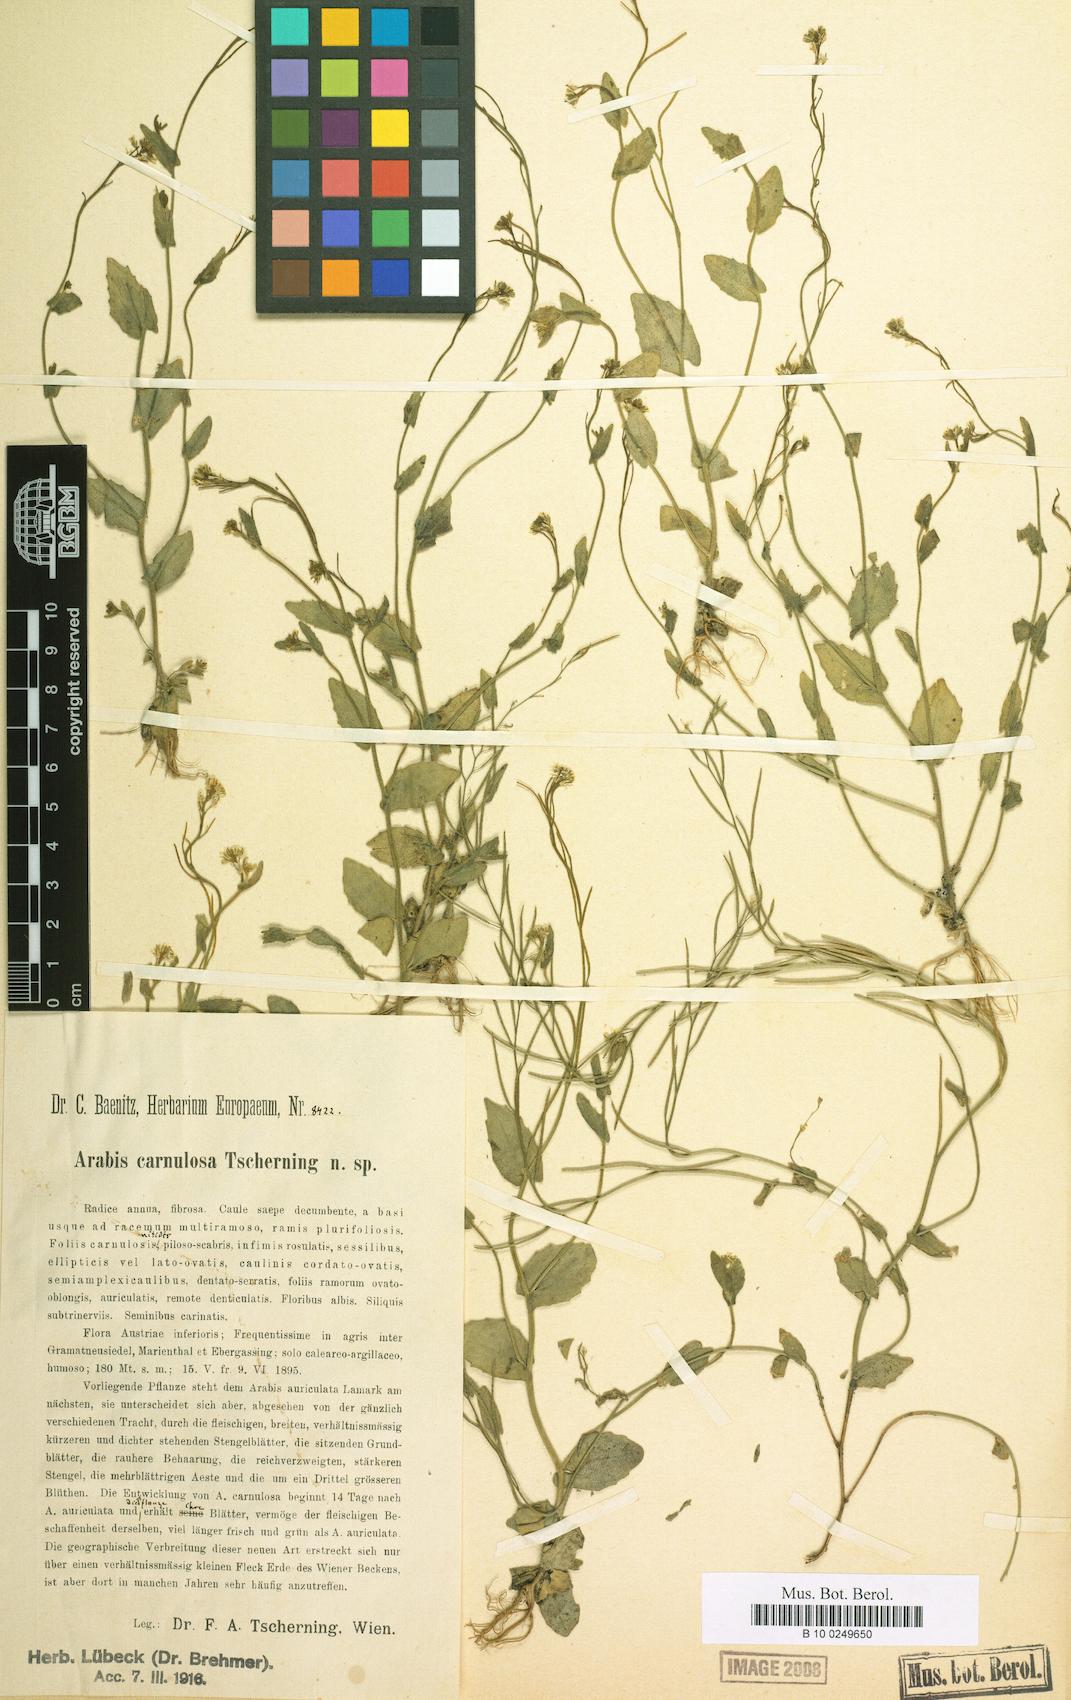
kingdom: Plantae
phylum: Tracheophyta
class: Magnoliopsida
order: Brassicales
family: Brassicaceae
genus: Arabis
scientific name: Arabis auriculata
